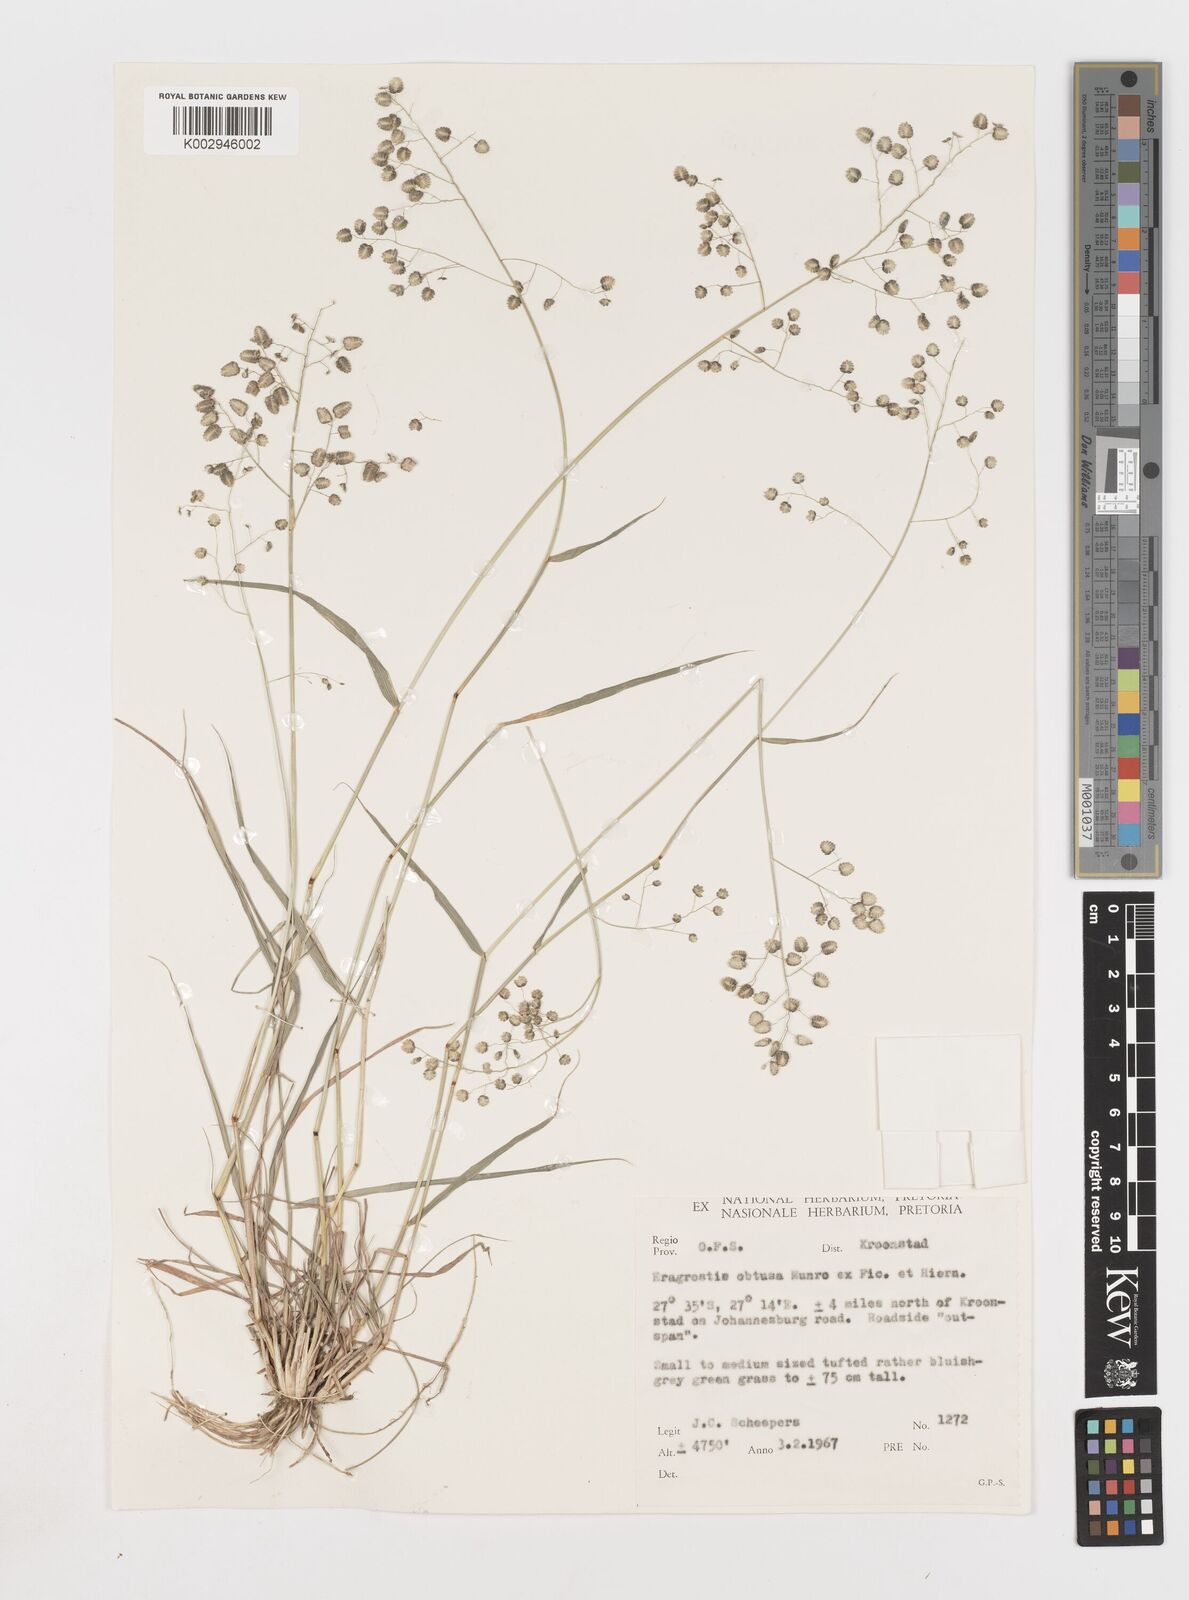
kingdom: Plantae
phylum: Tracheophyta
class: Liliopsida
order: Poales
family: Poaceae
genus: Eragrostis
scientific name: Eragrostis obtusa
